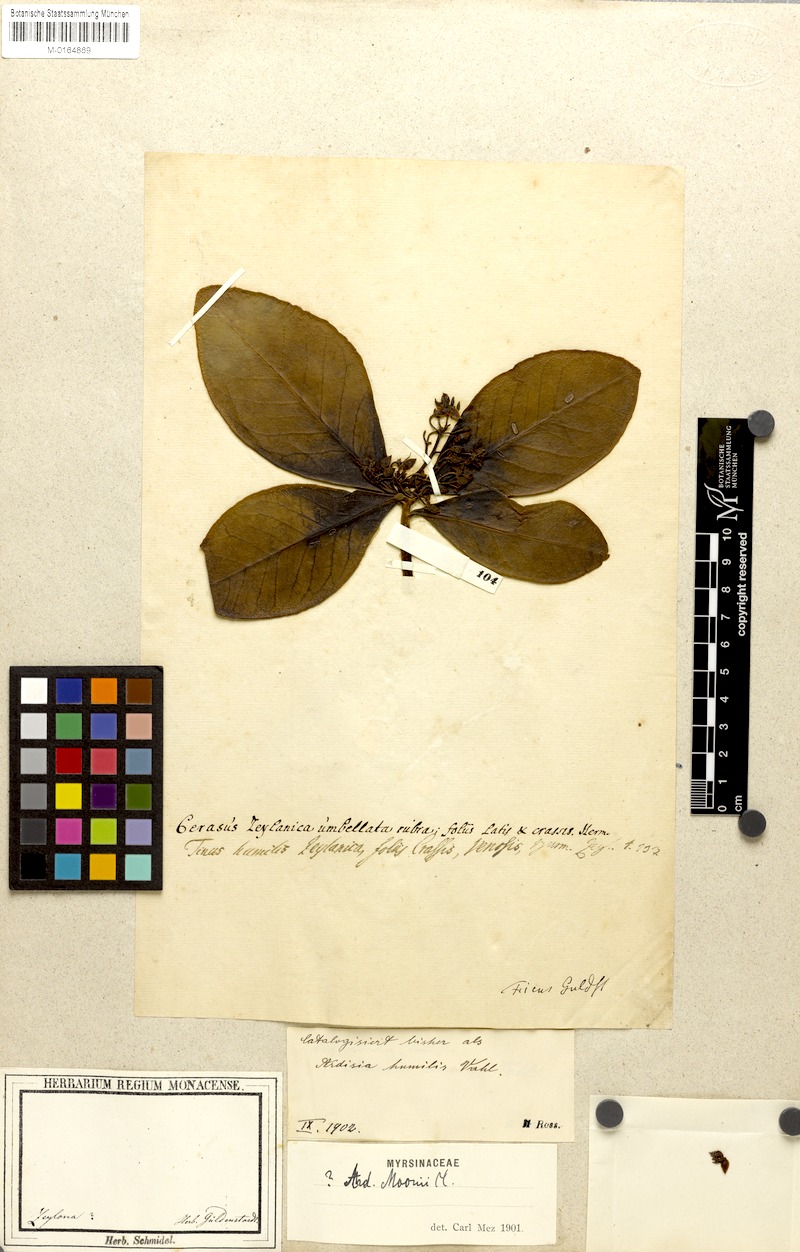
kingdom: Plantae
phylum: Tracheophyta
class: Magnoliopsida
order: Ericales
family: Primulaceae
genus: Ardisia
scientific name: Ardisia humilis
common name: Low shoebutton
